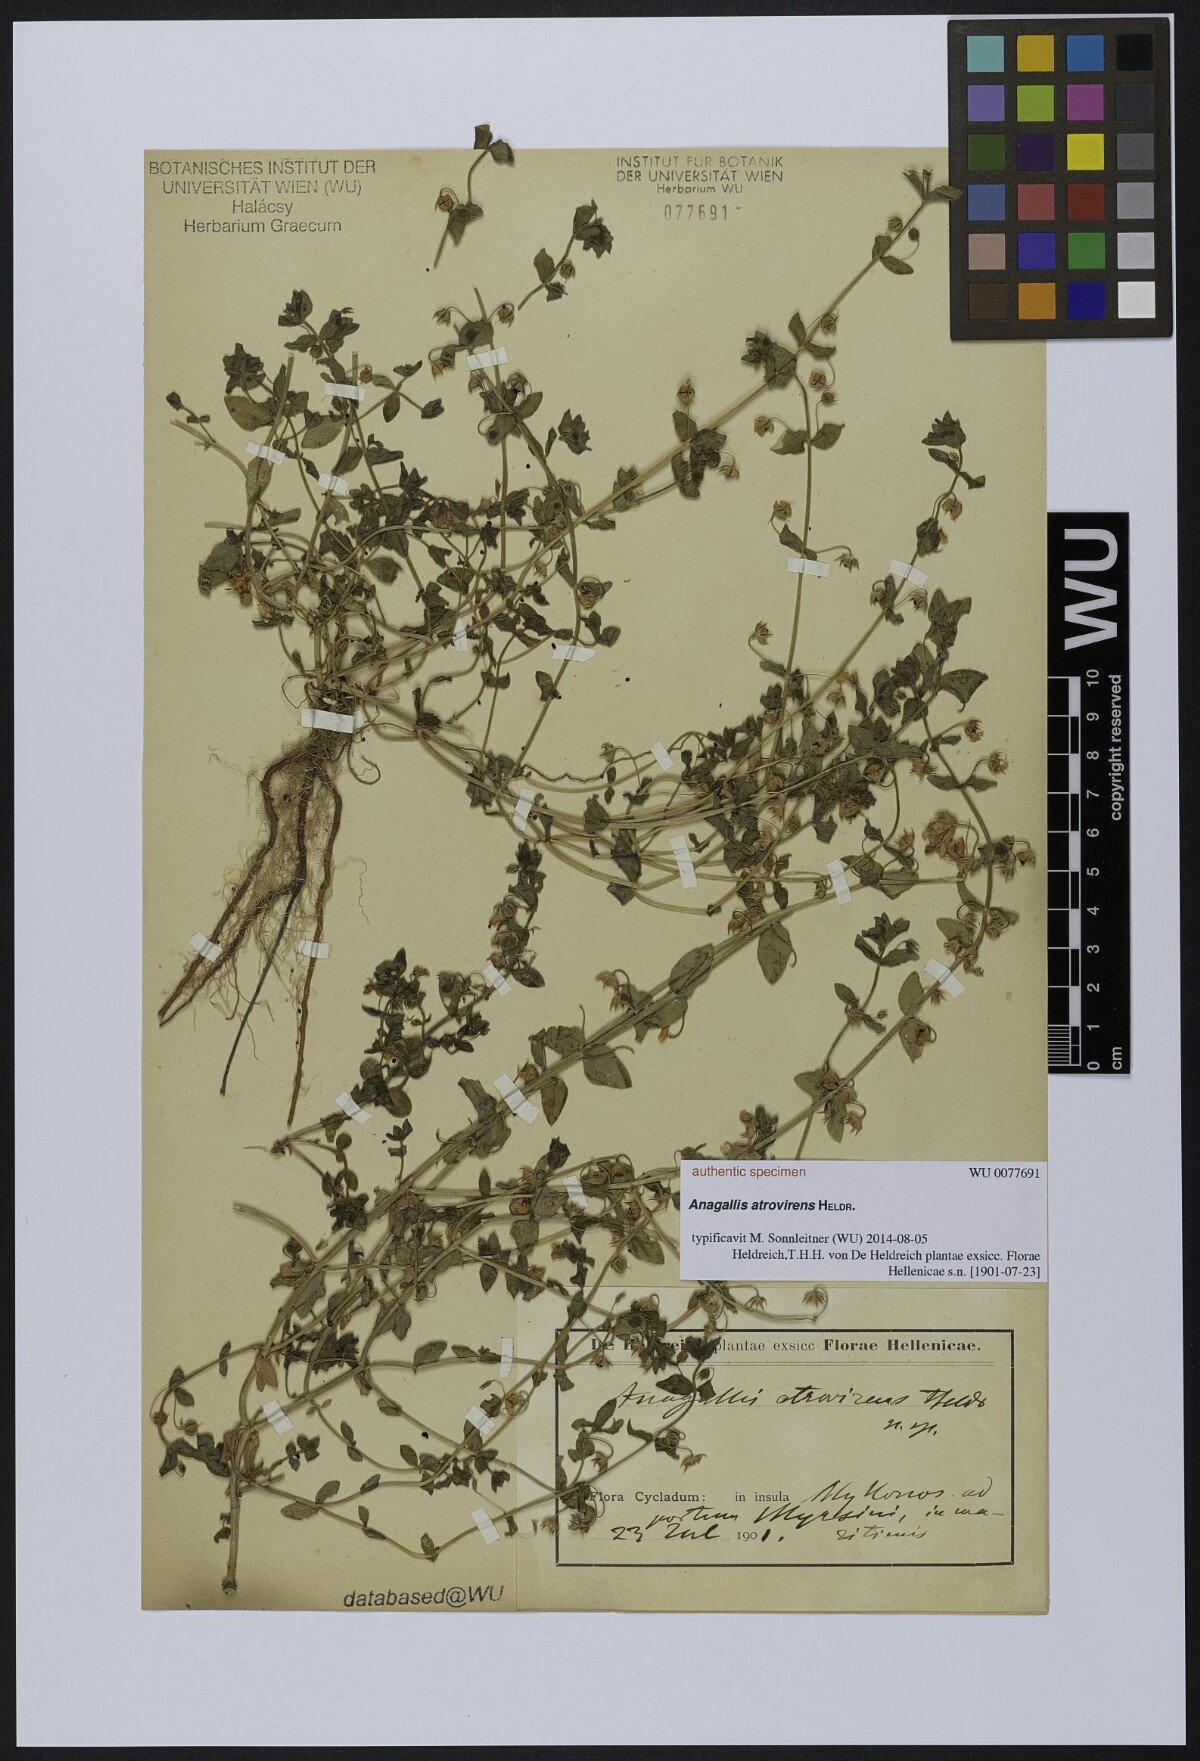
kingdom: Plantae
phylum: Tracheophyta
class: Magnoliopsida
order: Ericales
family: Primulaceae
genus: Lysimachia
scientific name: Lysimachia Anagallis spec
